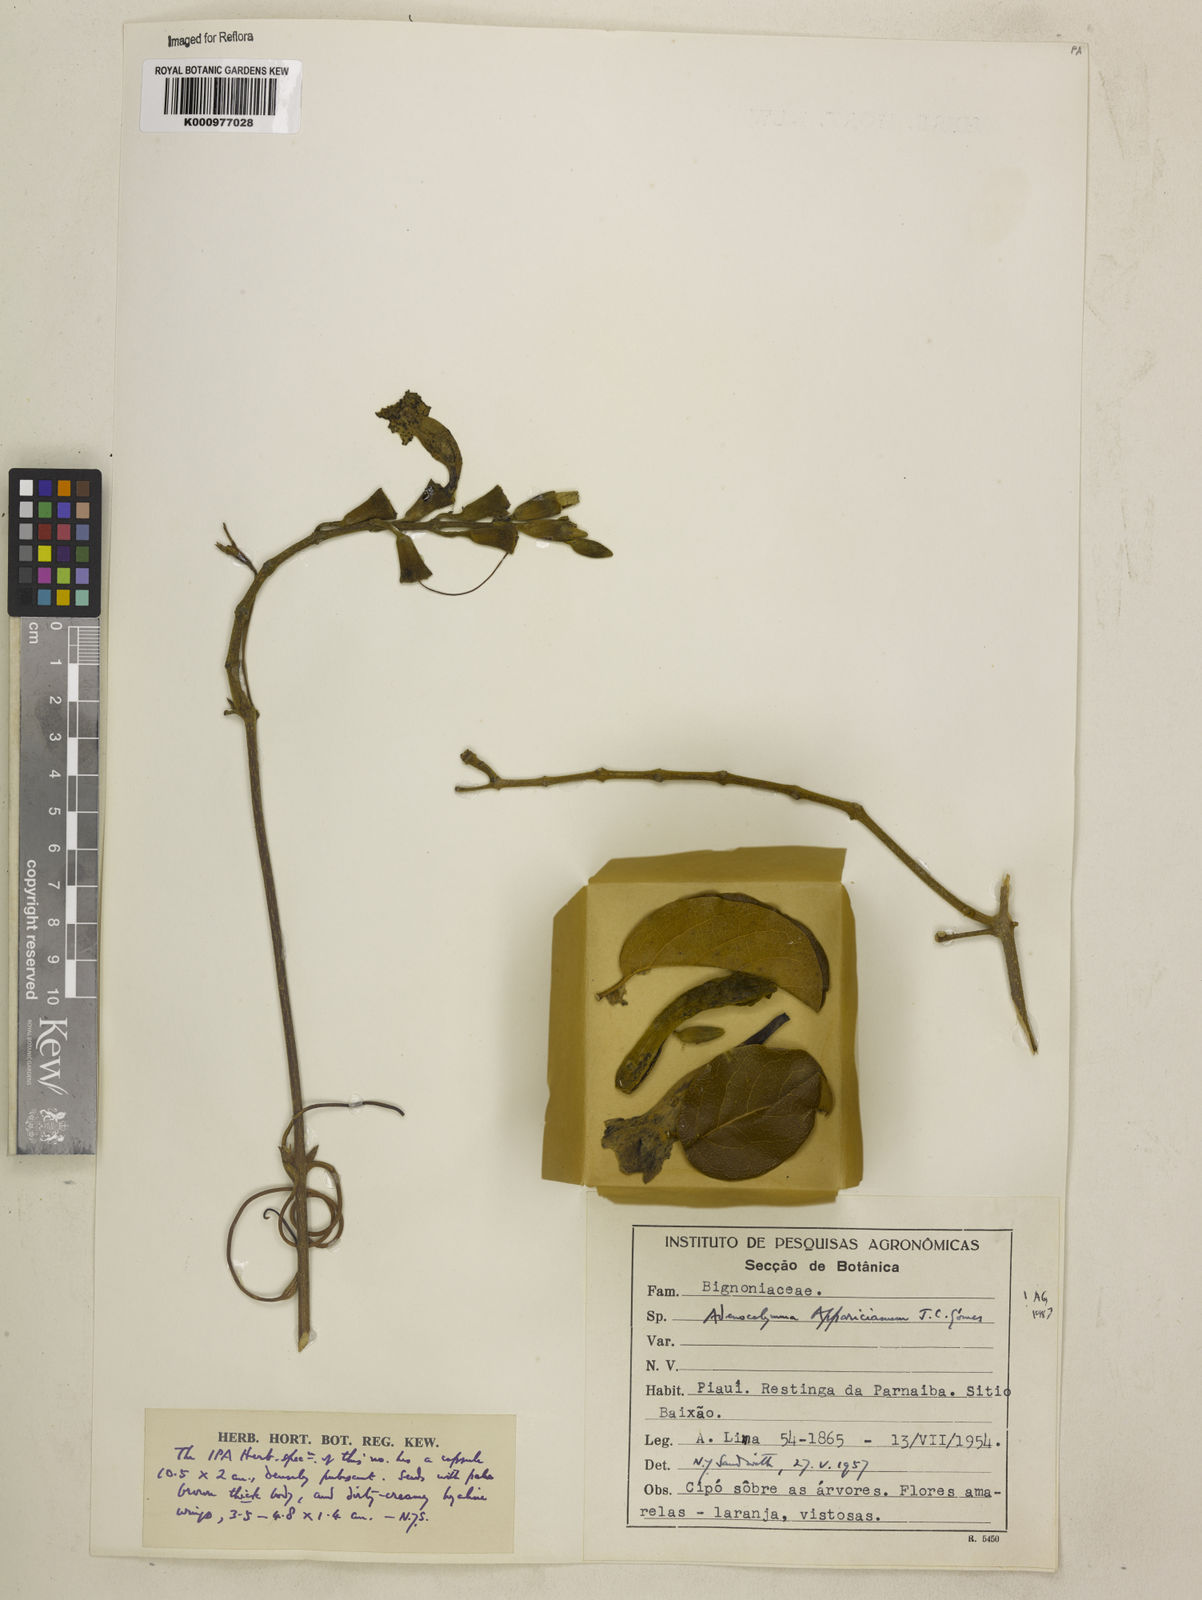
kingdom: Plantae
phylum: Tracheophyta
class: Magnoliopsida
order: Lamiales
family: Bignoniaceae
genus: Adenocalymma
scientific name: Adenocalymma apparicianum
